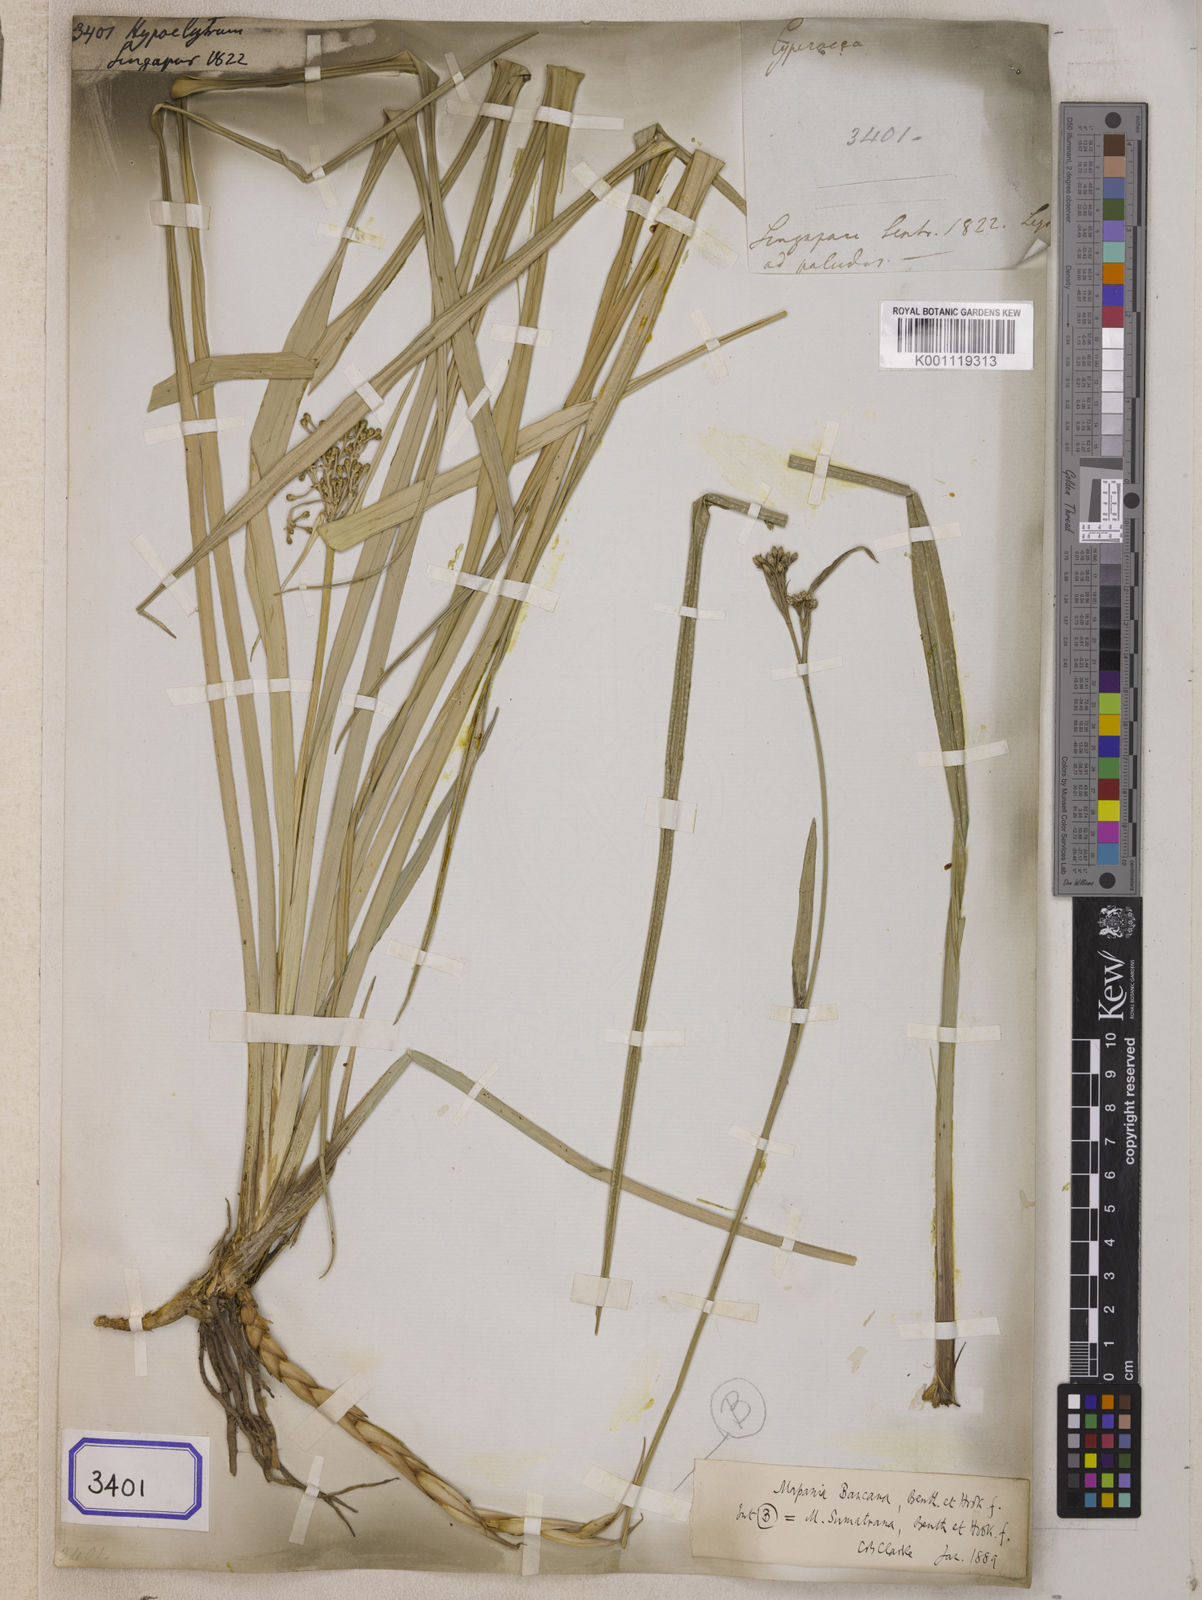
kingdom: Plantae
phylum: Tracheophyta
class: Liliopsida
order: Poales
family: Cyperaceae
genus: Hypolytrum
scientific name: Hypolytrum
